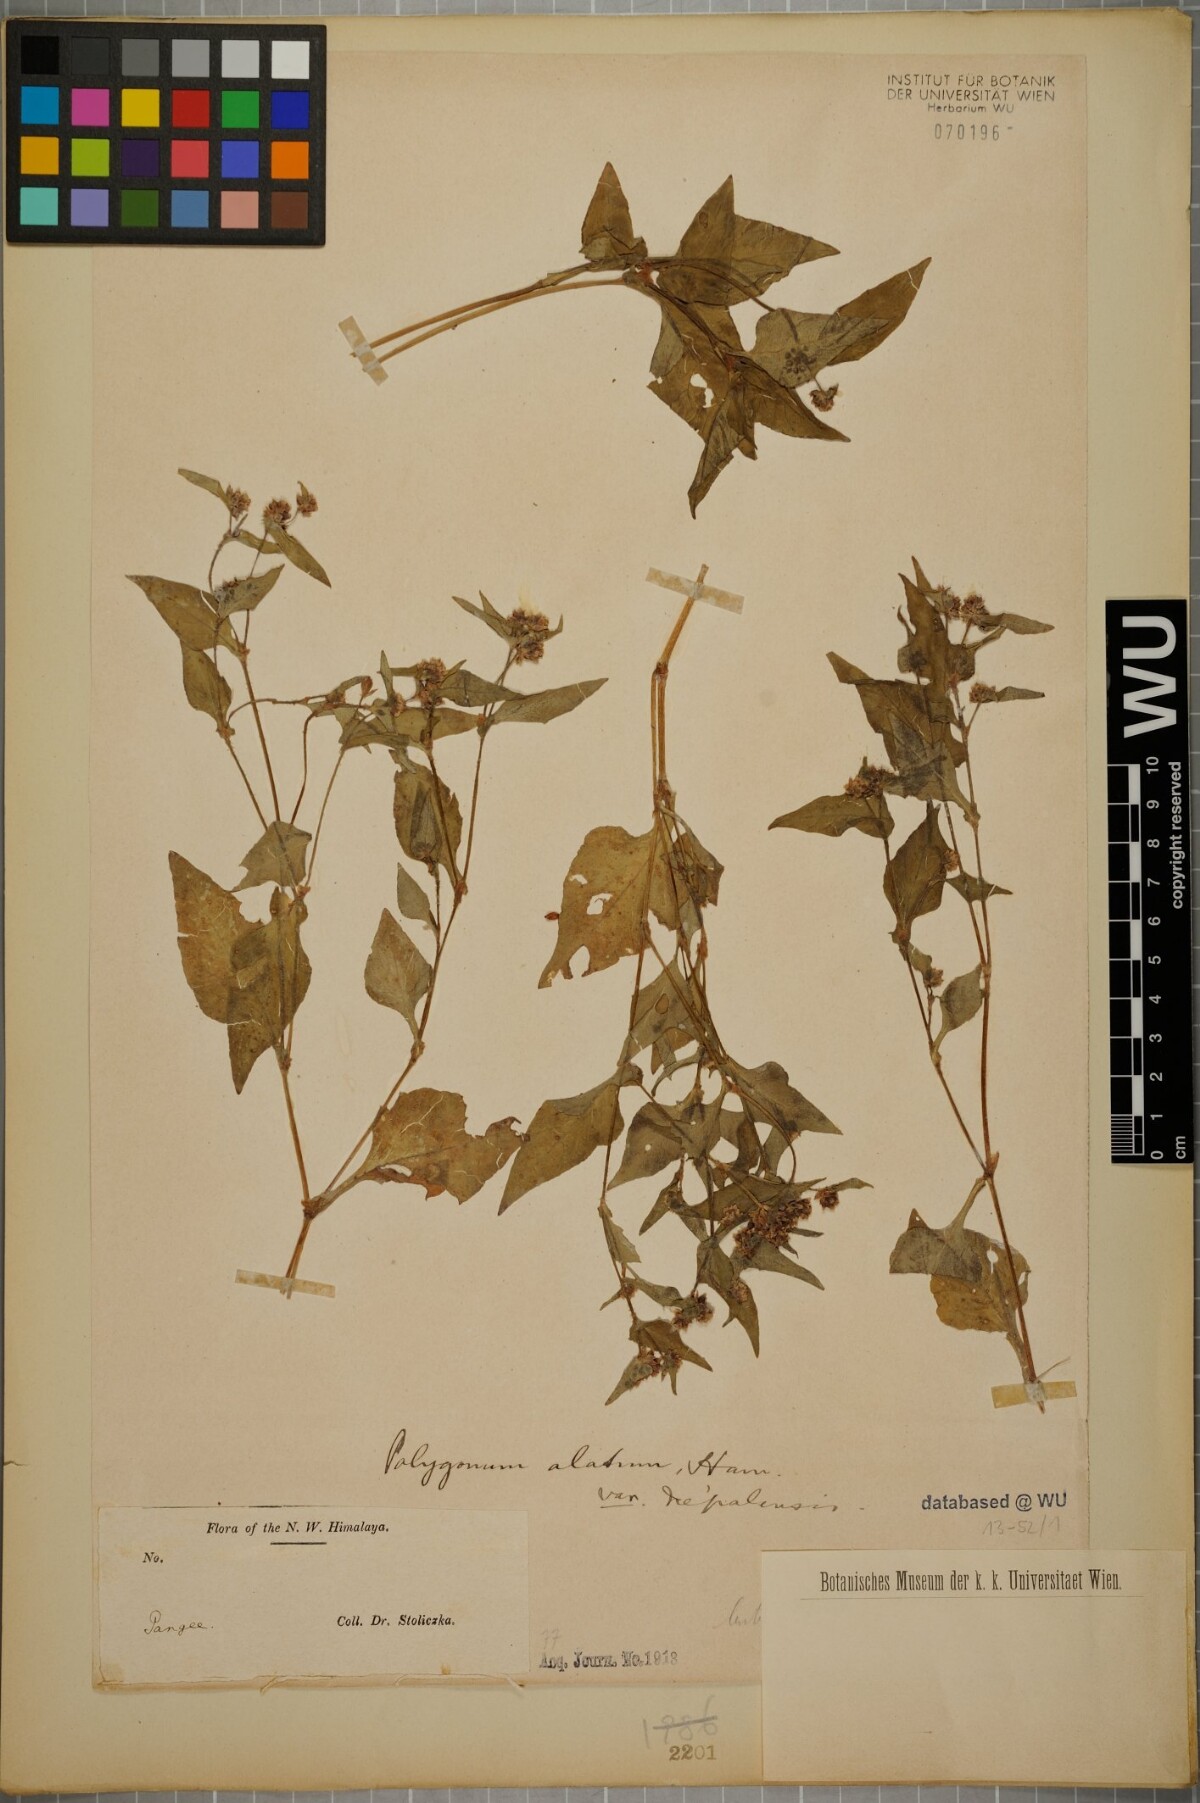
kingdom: Plantae
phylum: Tracheophyta
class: Magnoliopsida
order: Caryophyllales
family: Polygonaceae
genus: Persicaria
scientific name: Persicaria nepalensis
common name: Nepal persicaria
